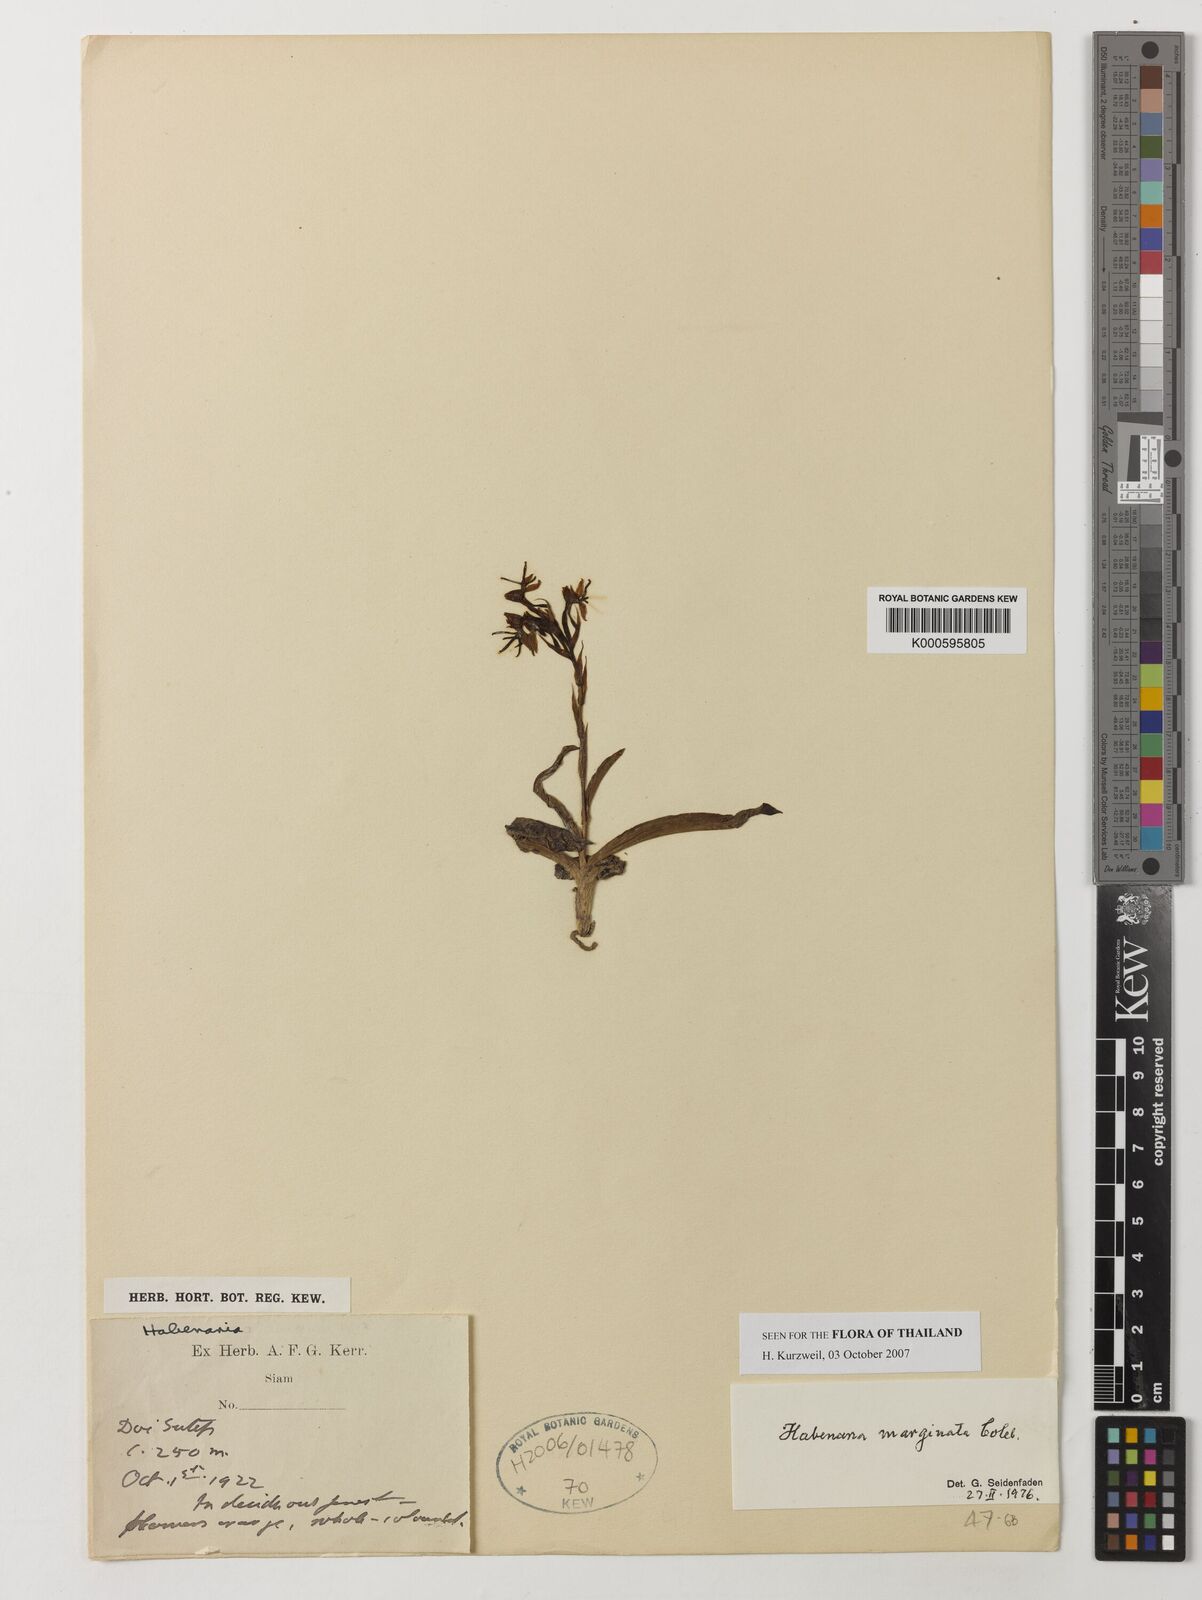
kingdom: Plantae
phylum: Tracheophyta
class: Liliopsida
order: Asparagales
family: Orchidaceae
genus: Habenaria
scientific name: Habenaria marginata
